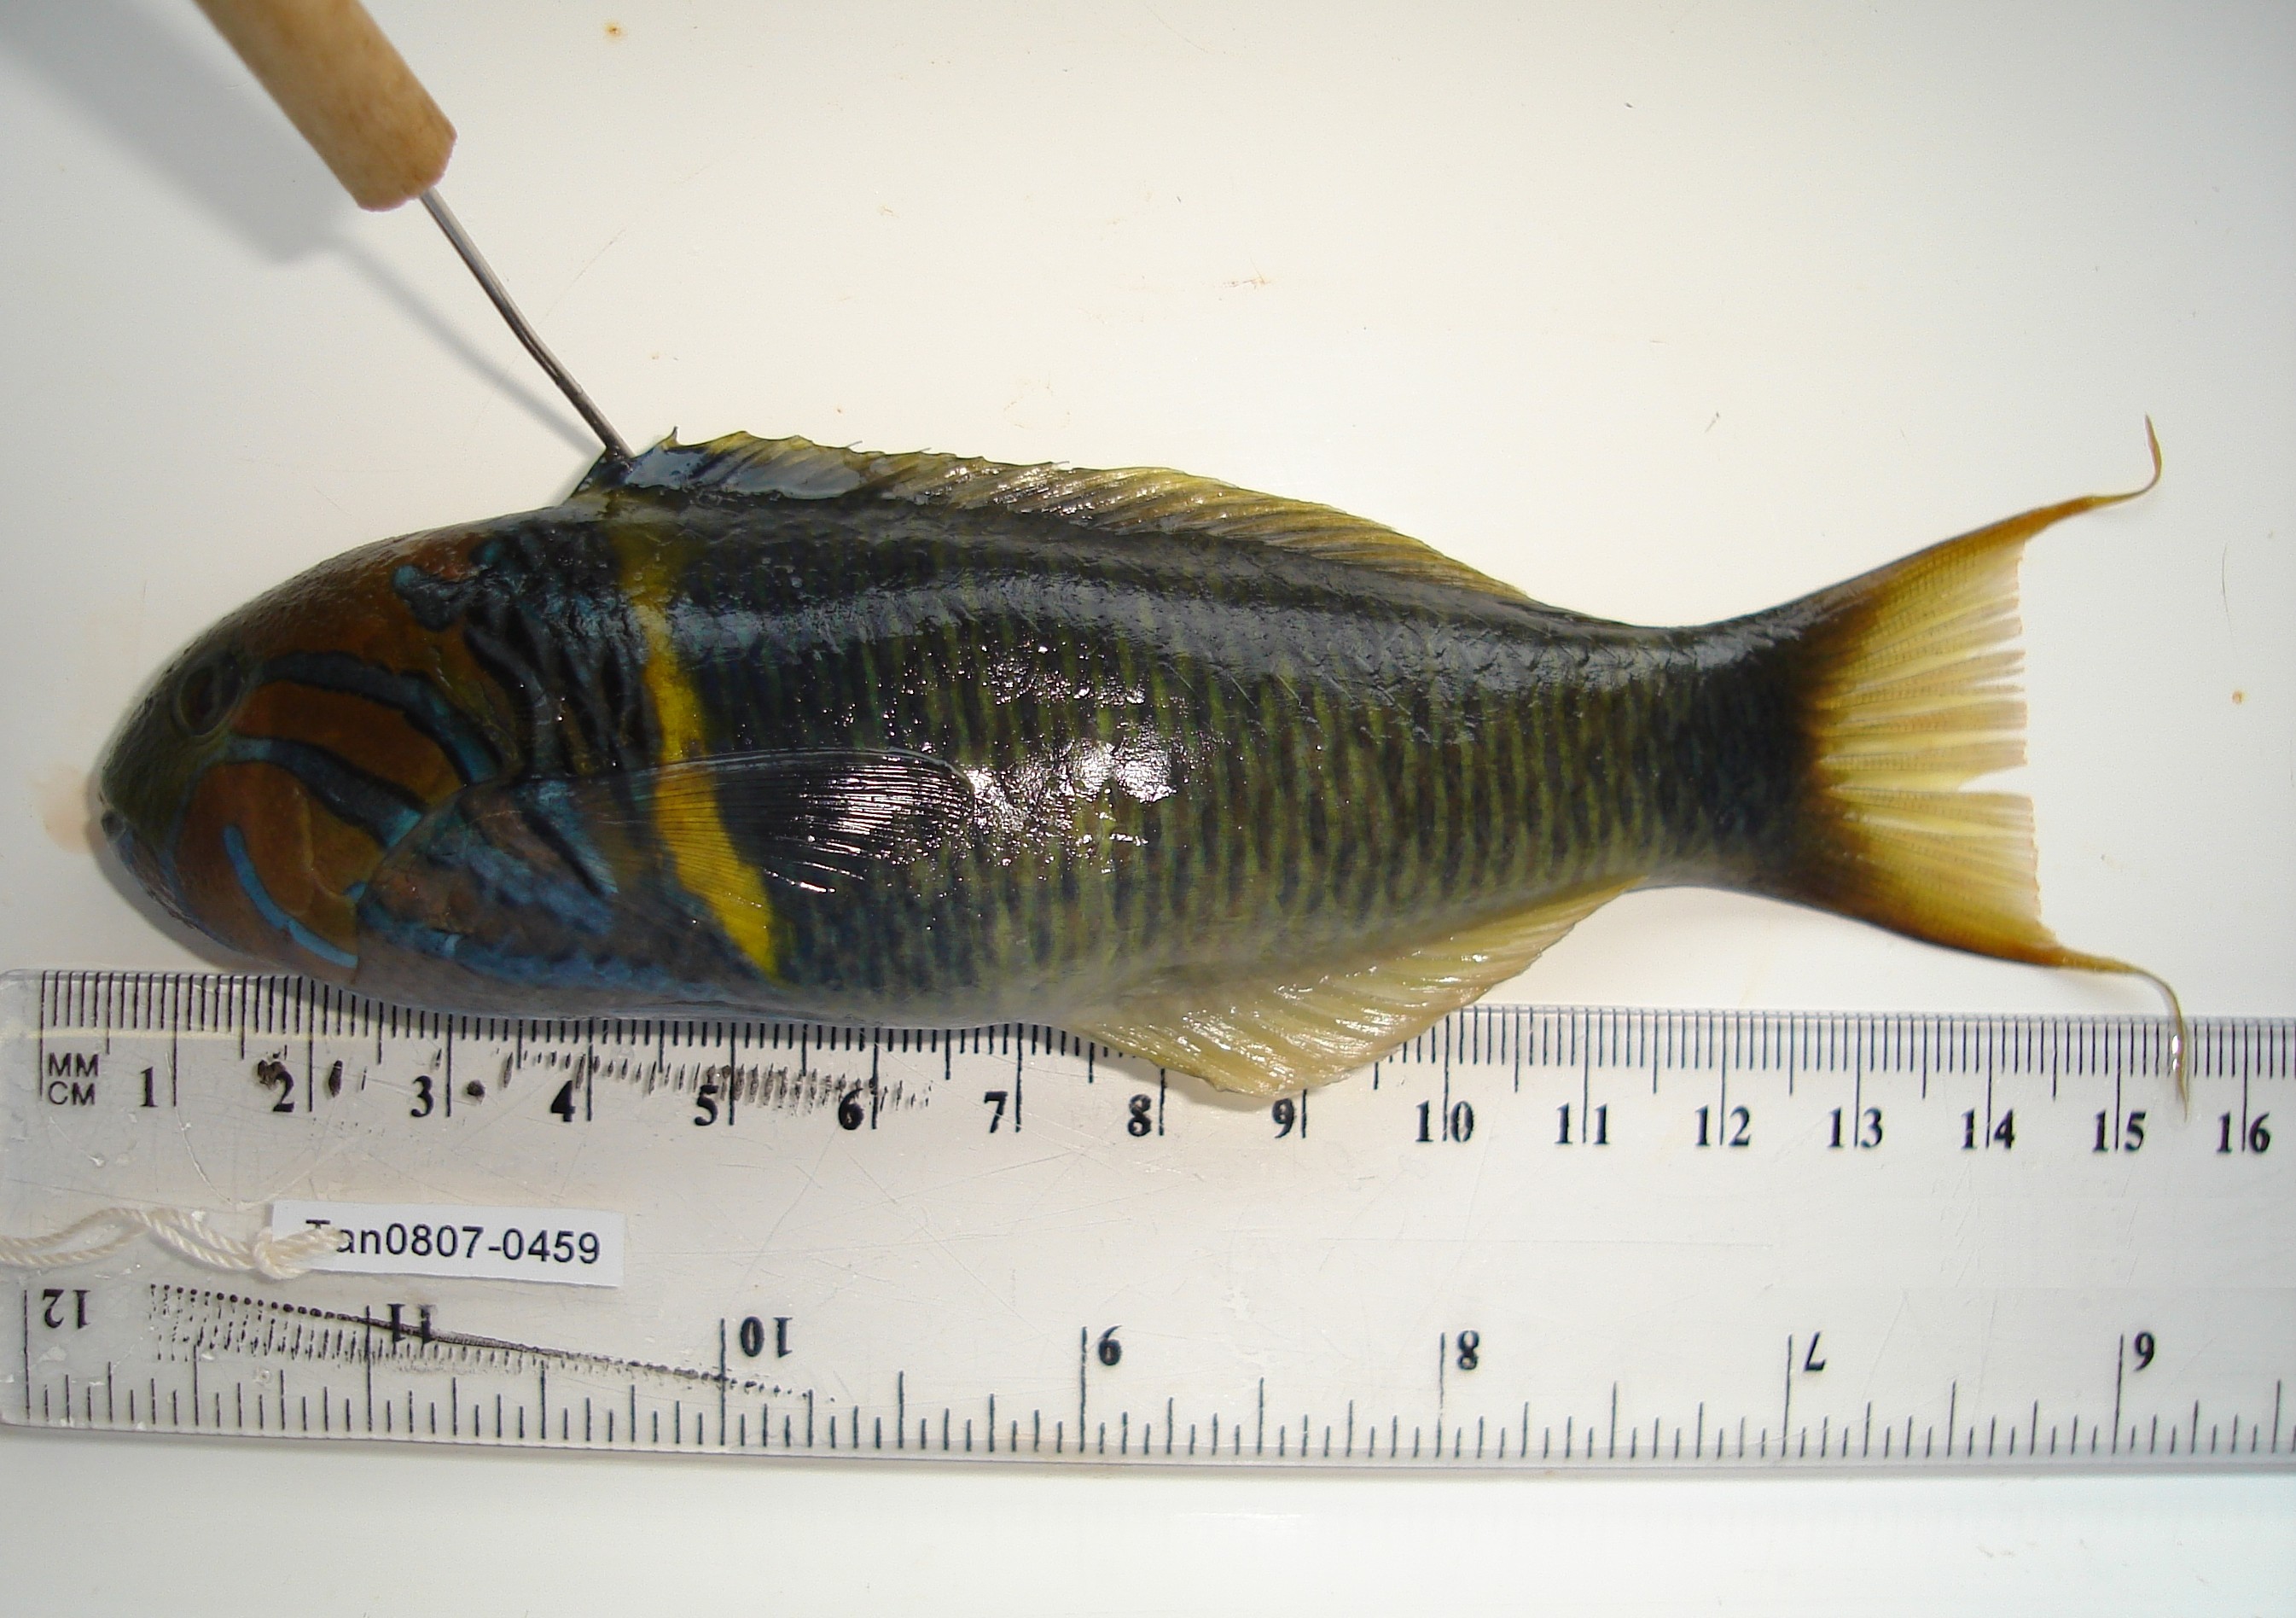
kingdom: Animalia
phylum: Chordata
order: Perciformes
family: Labridae
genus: Thalassoma
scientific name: Thalassoma hebraicum
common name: Goldbar wrasse
